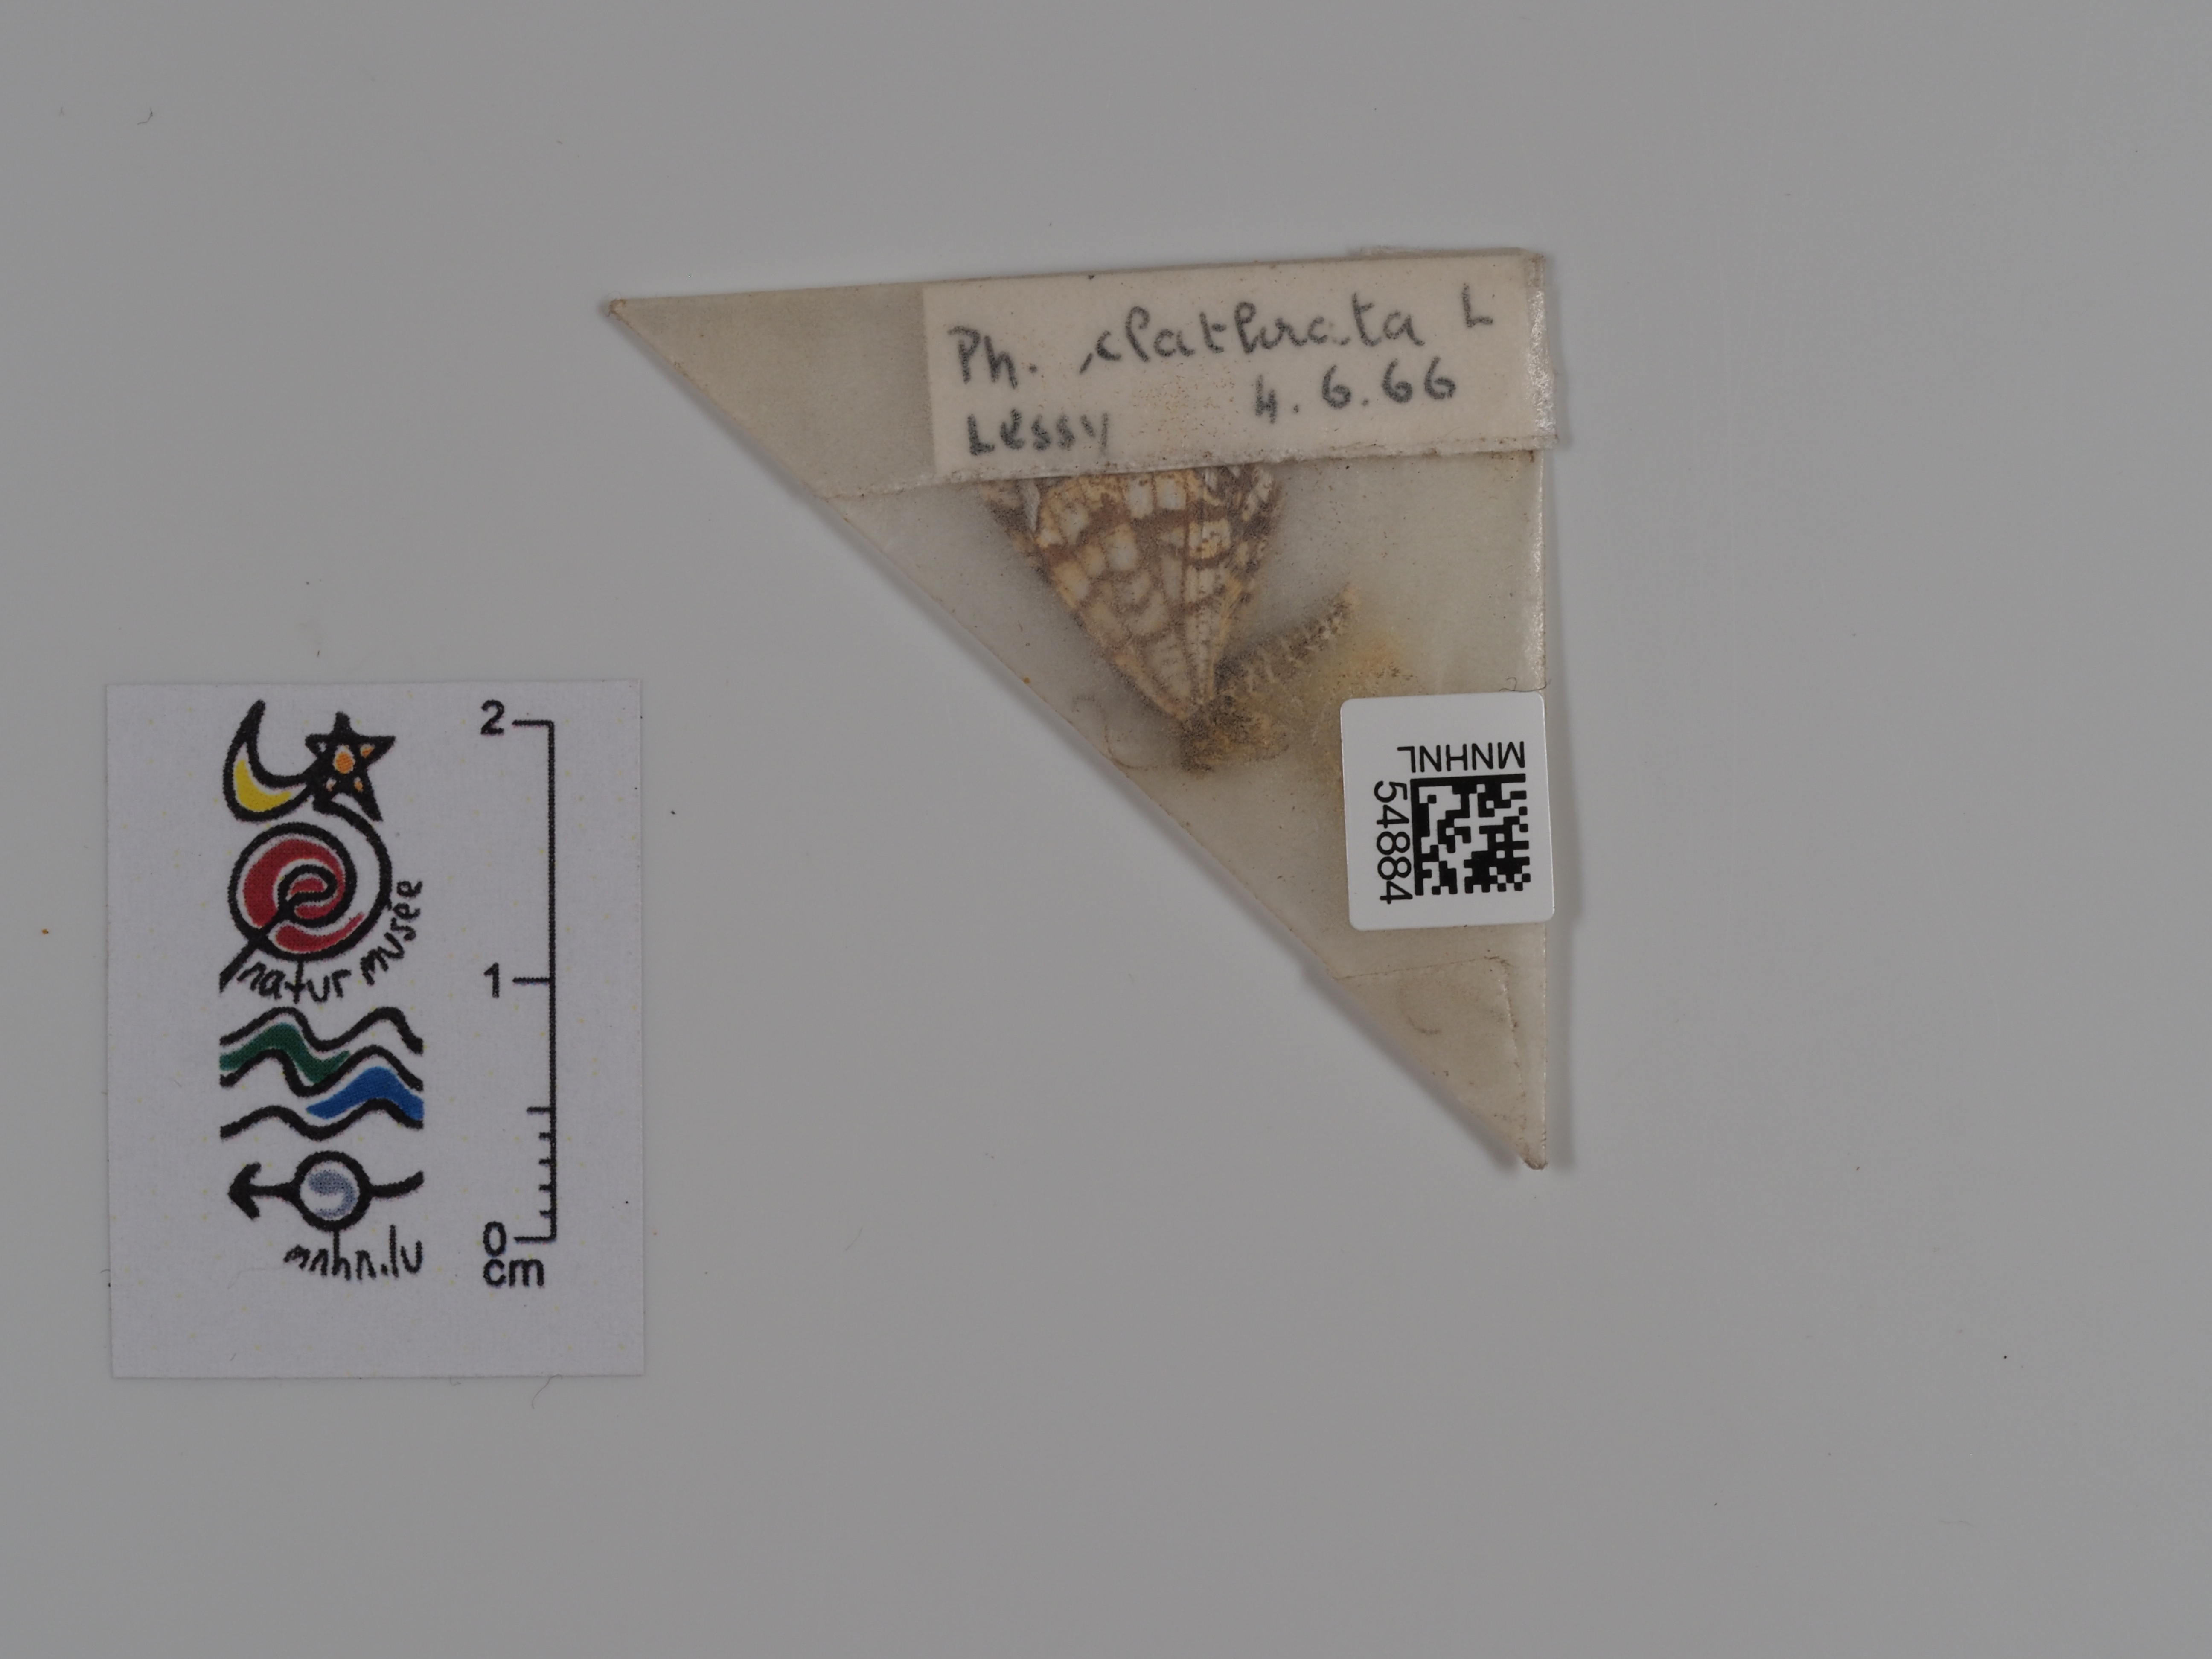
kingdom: Animalia
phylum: Arthropoda
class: Insecta
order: Lepidoptera
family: Geometridae
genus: Chiasmia
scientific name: Chiasmia clathrata
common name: Latticed heath
